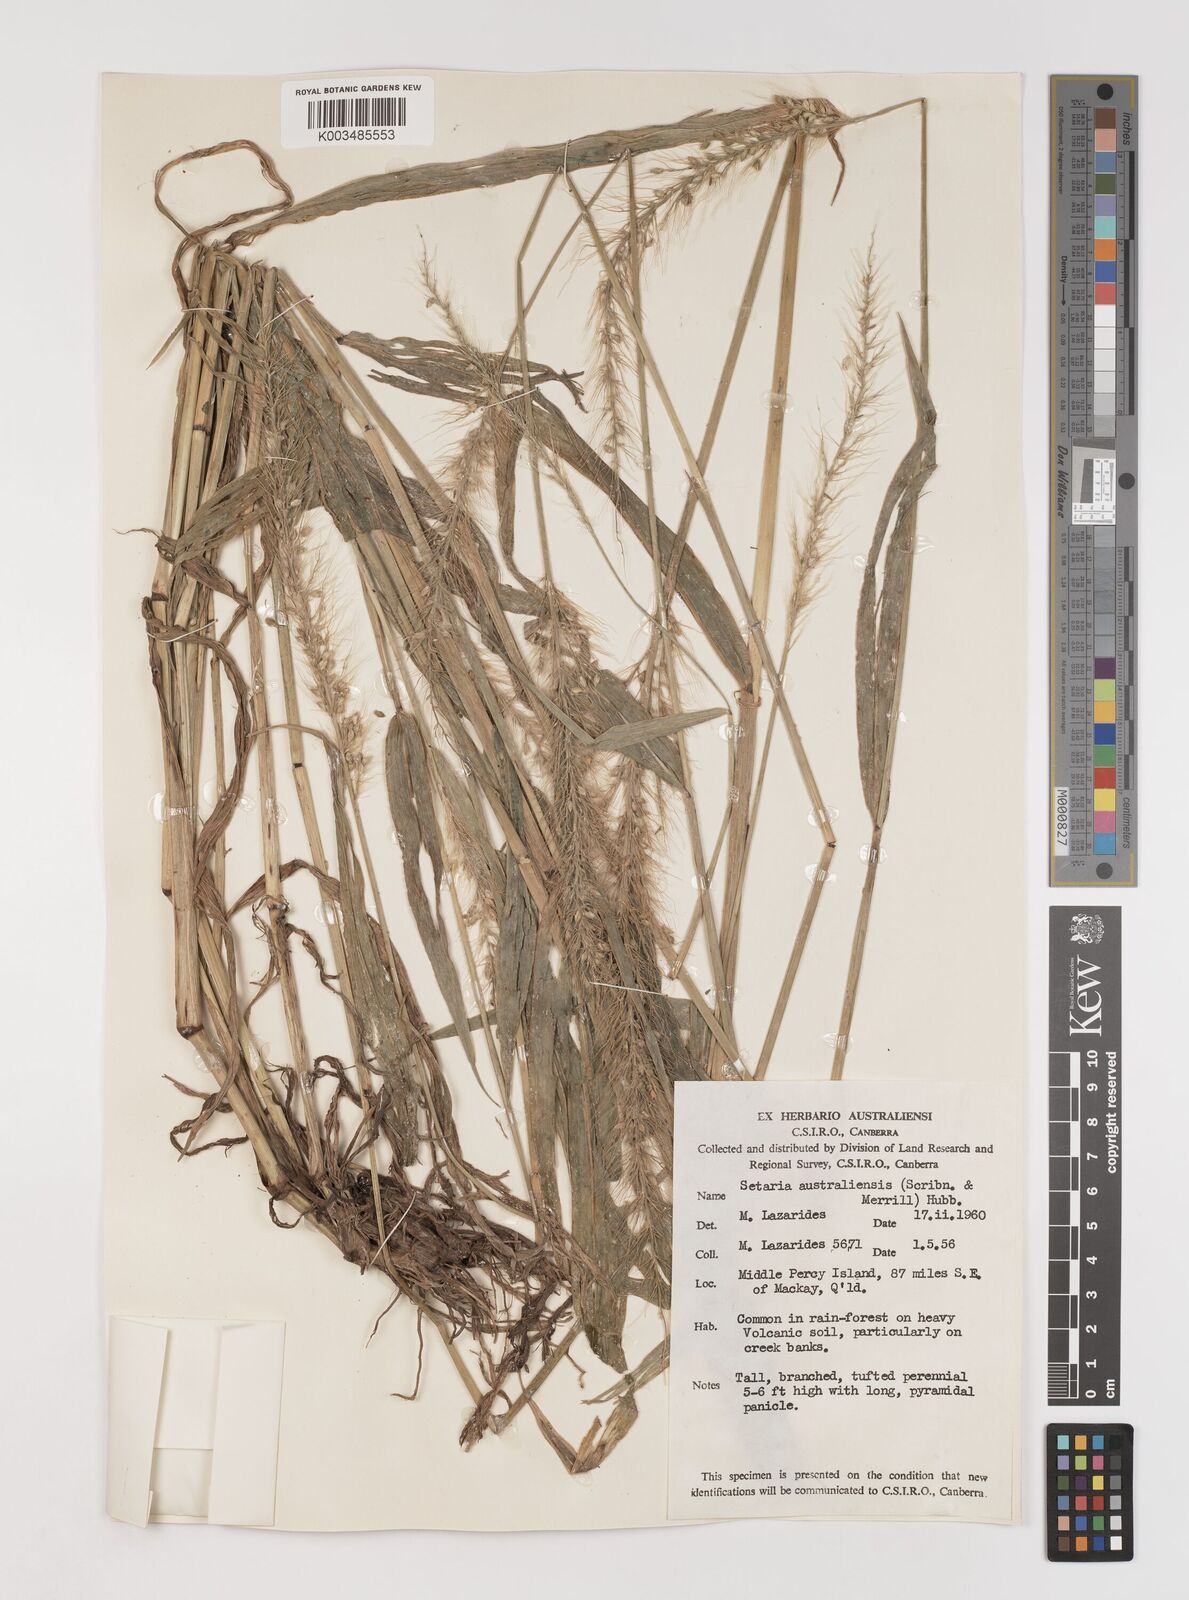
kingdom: Plantae
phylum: Tracheophyta
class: Liliopsida
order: Poales
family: Poaceae
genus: Setaria
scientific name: Setaria
